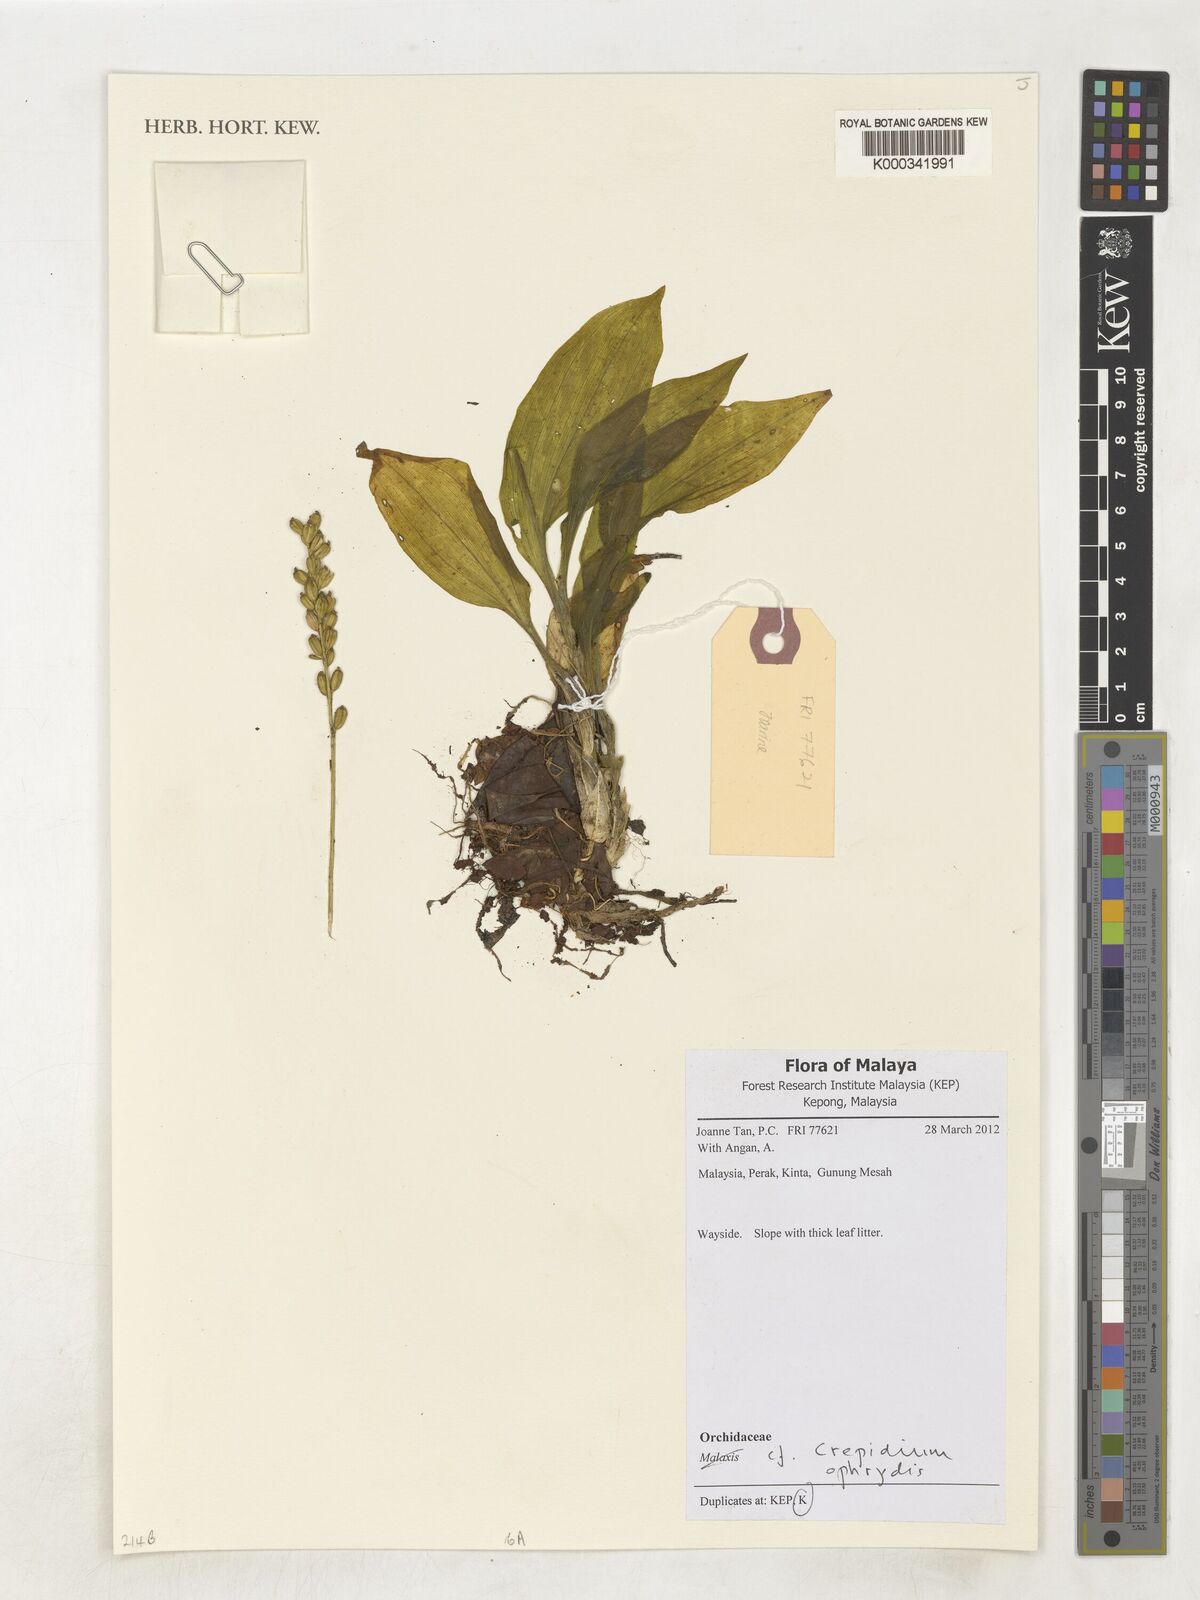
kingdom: Plantae
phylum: Tracheophyta
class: Liliopsida
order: Asparagales
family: Orchidaceae
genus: Dienia
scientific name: Dienia ophrydis
